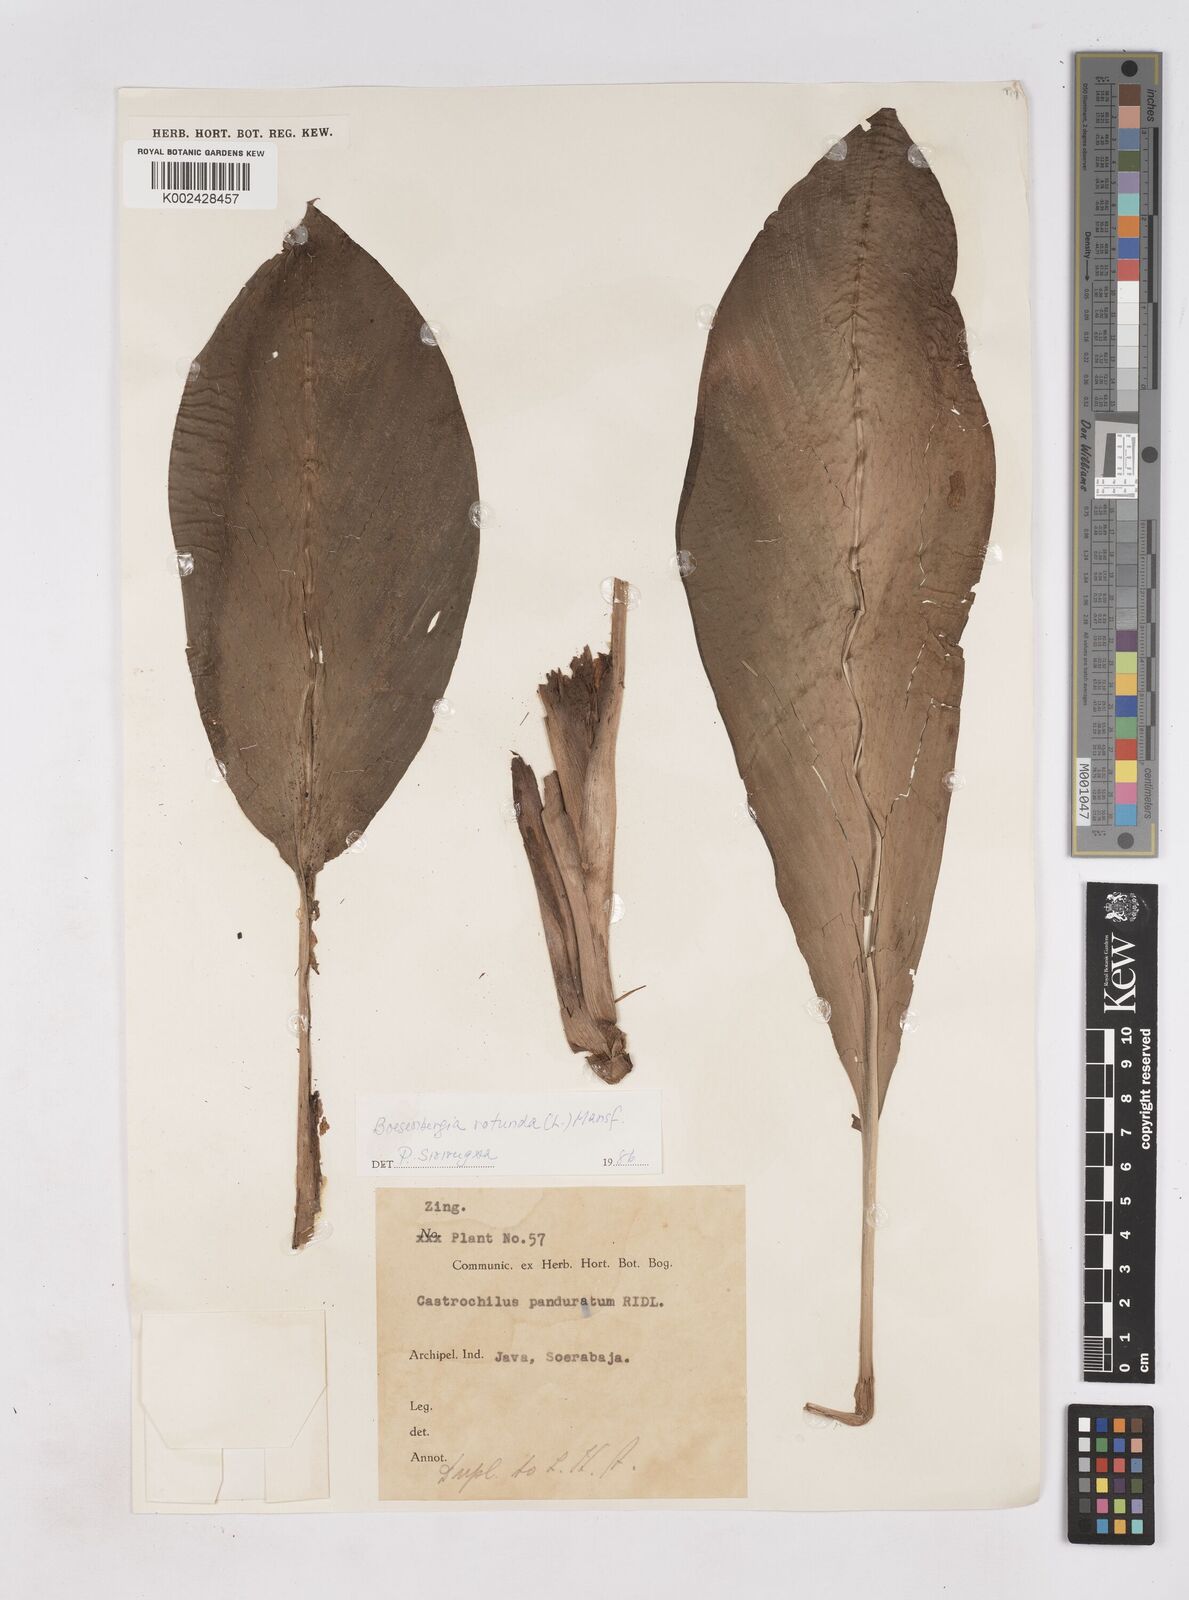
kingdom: Plantae
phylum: Tracheophyta
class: Liliopsida
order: Zingiberales
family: Zingiberaceae
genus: Boesenbergia
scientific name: Boesenbergia rotunda
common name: Chinese ginger
